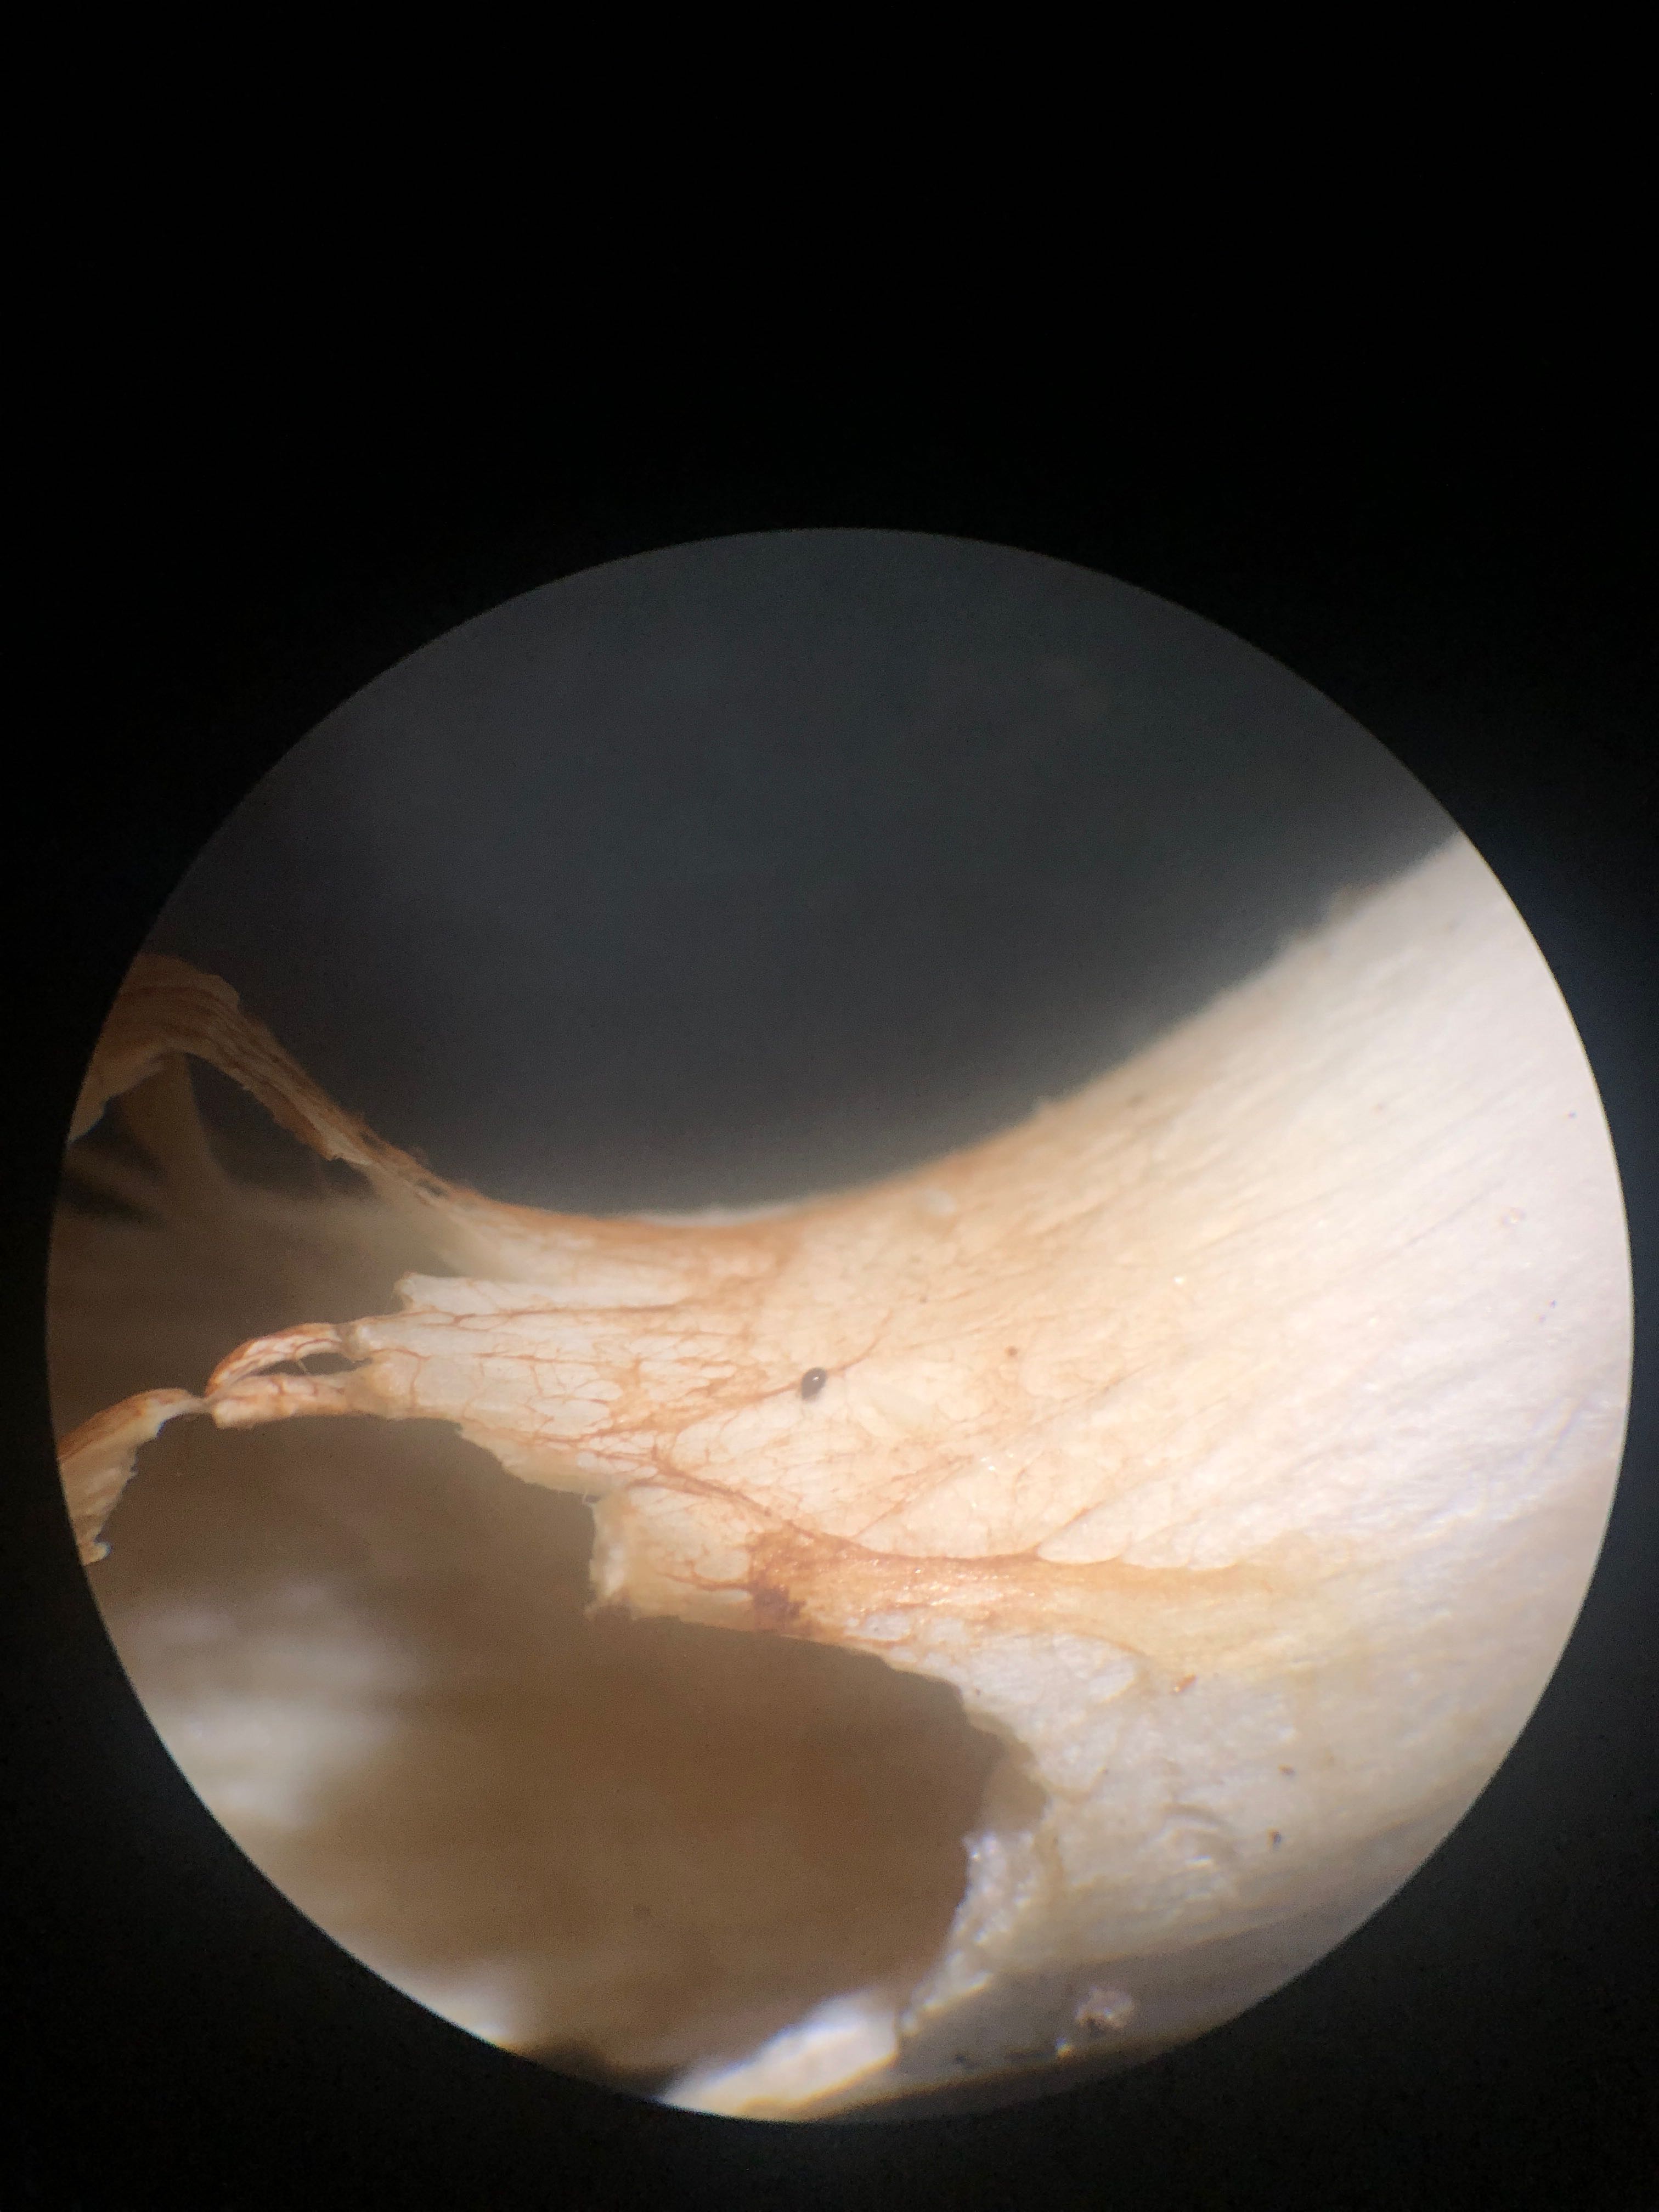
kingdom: Fungi
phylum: Basidiomycota
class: Agaricomycetes
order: Agaricales
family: Cortinariaceae
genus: Thaxterogaster
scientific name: Thaxterogaster leucoluteolus
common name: isabella slørhat
